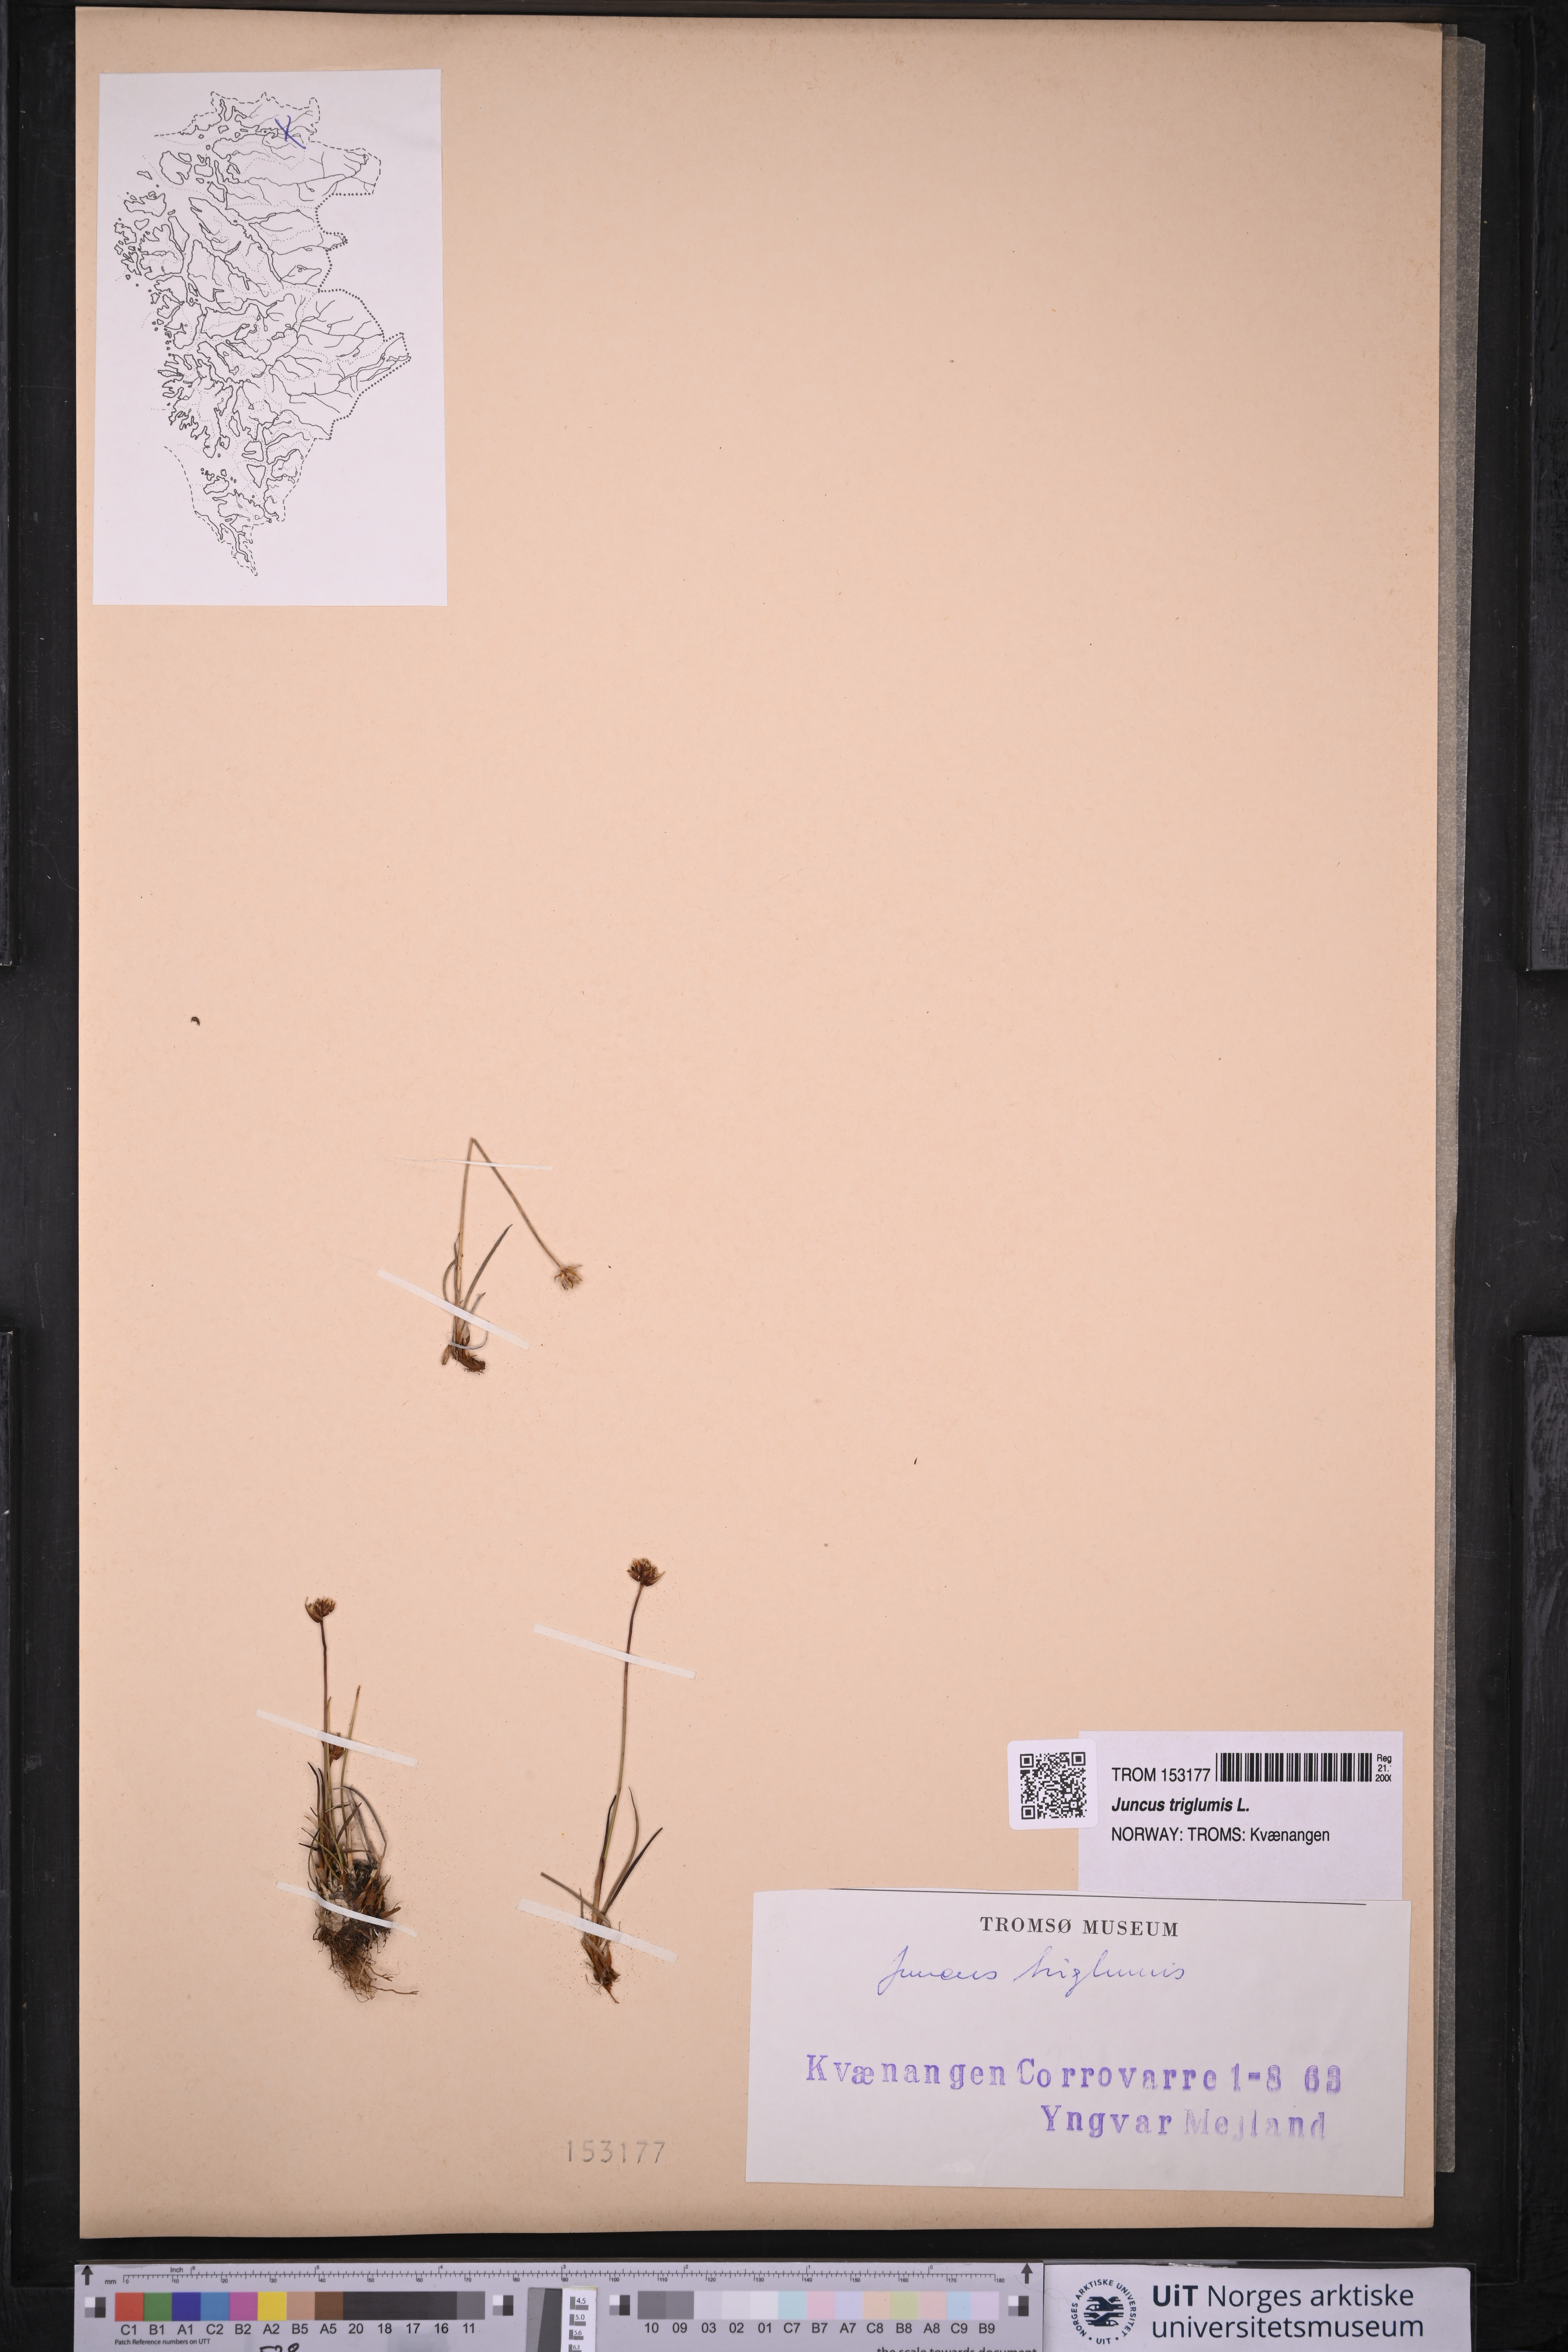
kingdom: Plantae
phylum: Tracheophyta
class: Liliopsida
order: Poales
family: Juncaceae
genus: Juncus
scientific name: Juncus triglumis
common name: Three-flowered rush
